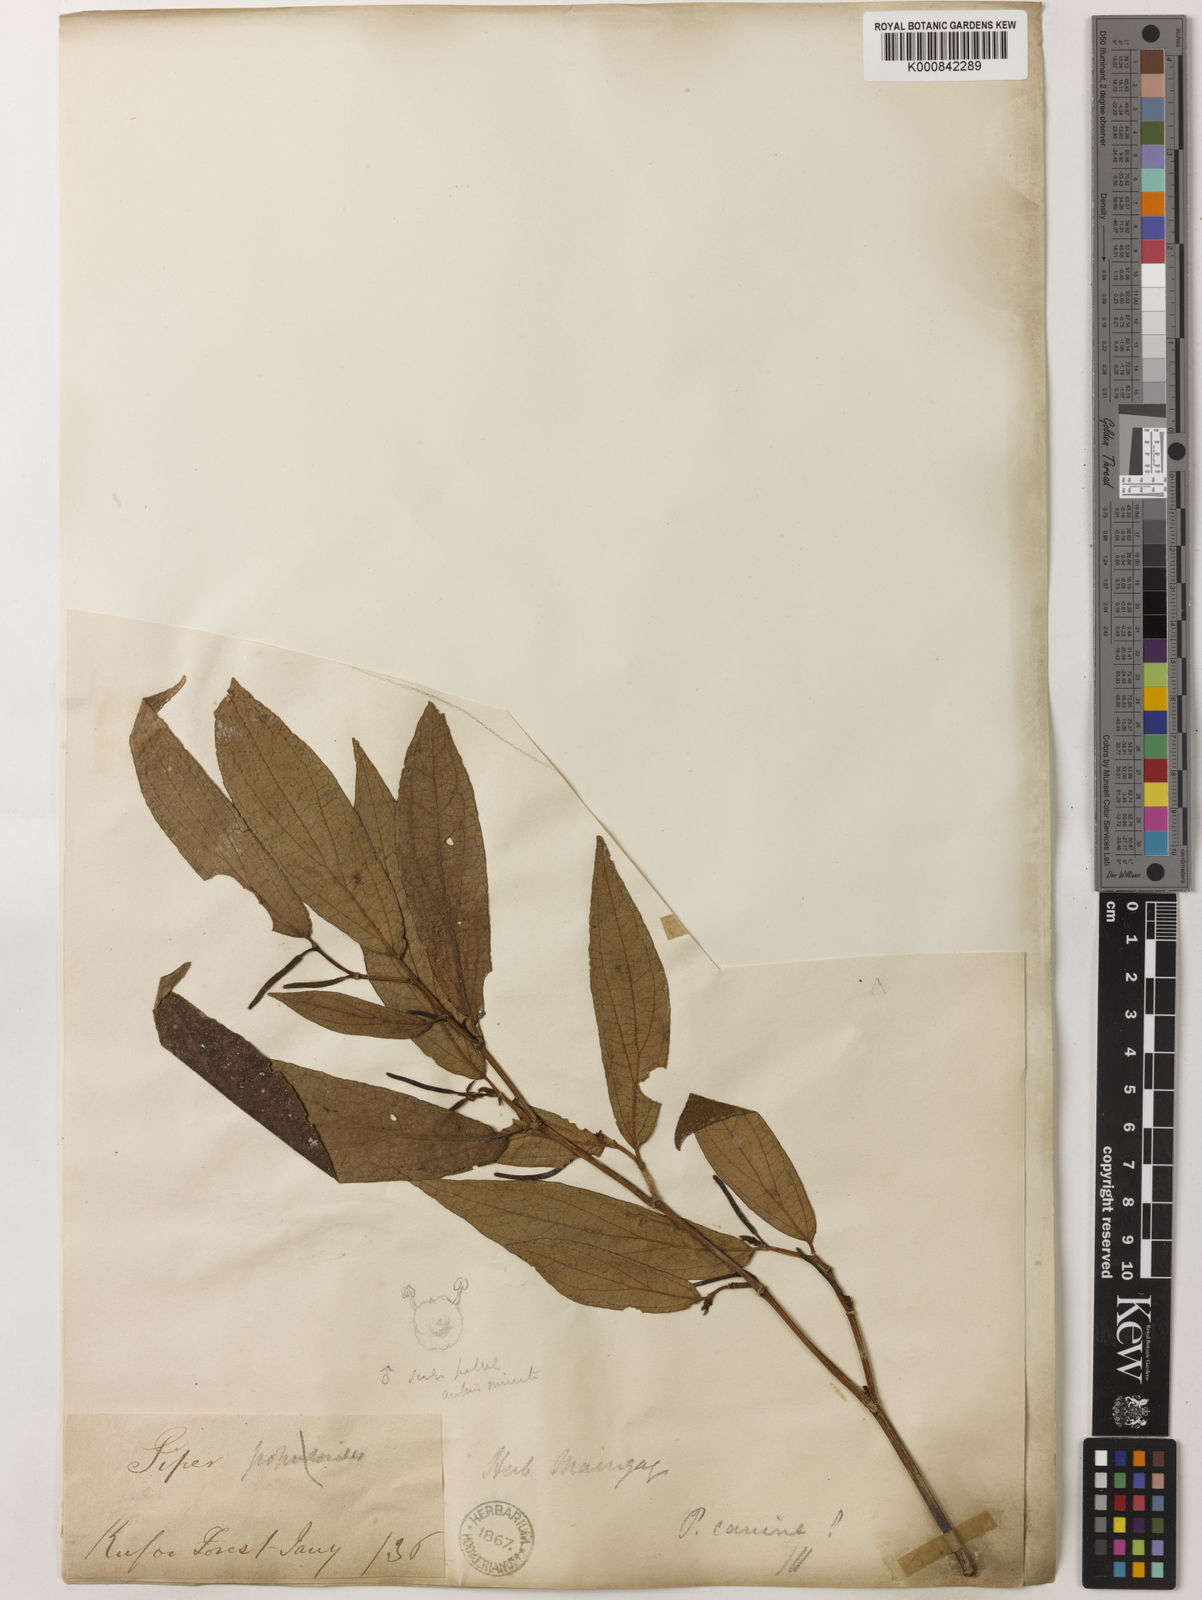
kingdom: Plantae
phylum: Tracheophyta
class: Magnoliopsida
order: Piperales
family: Piperaceae
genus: Piper
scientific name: Piper lanatum
